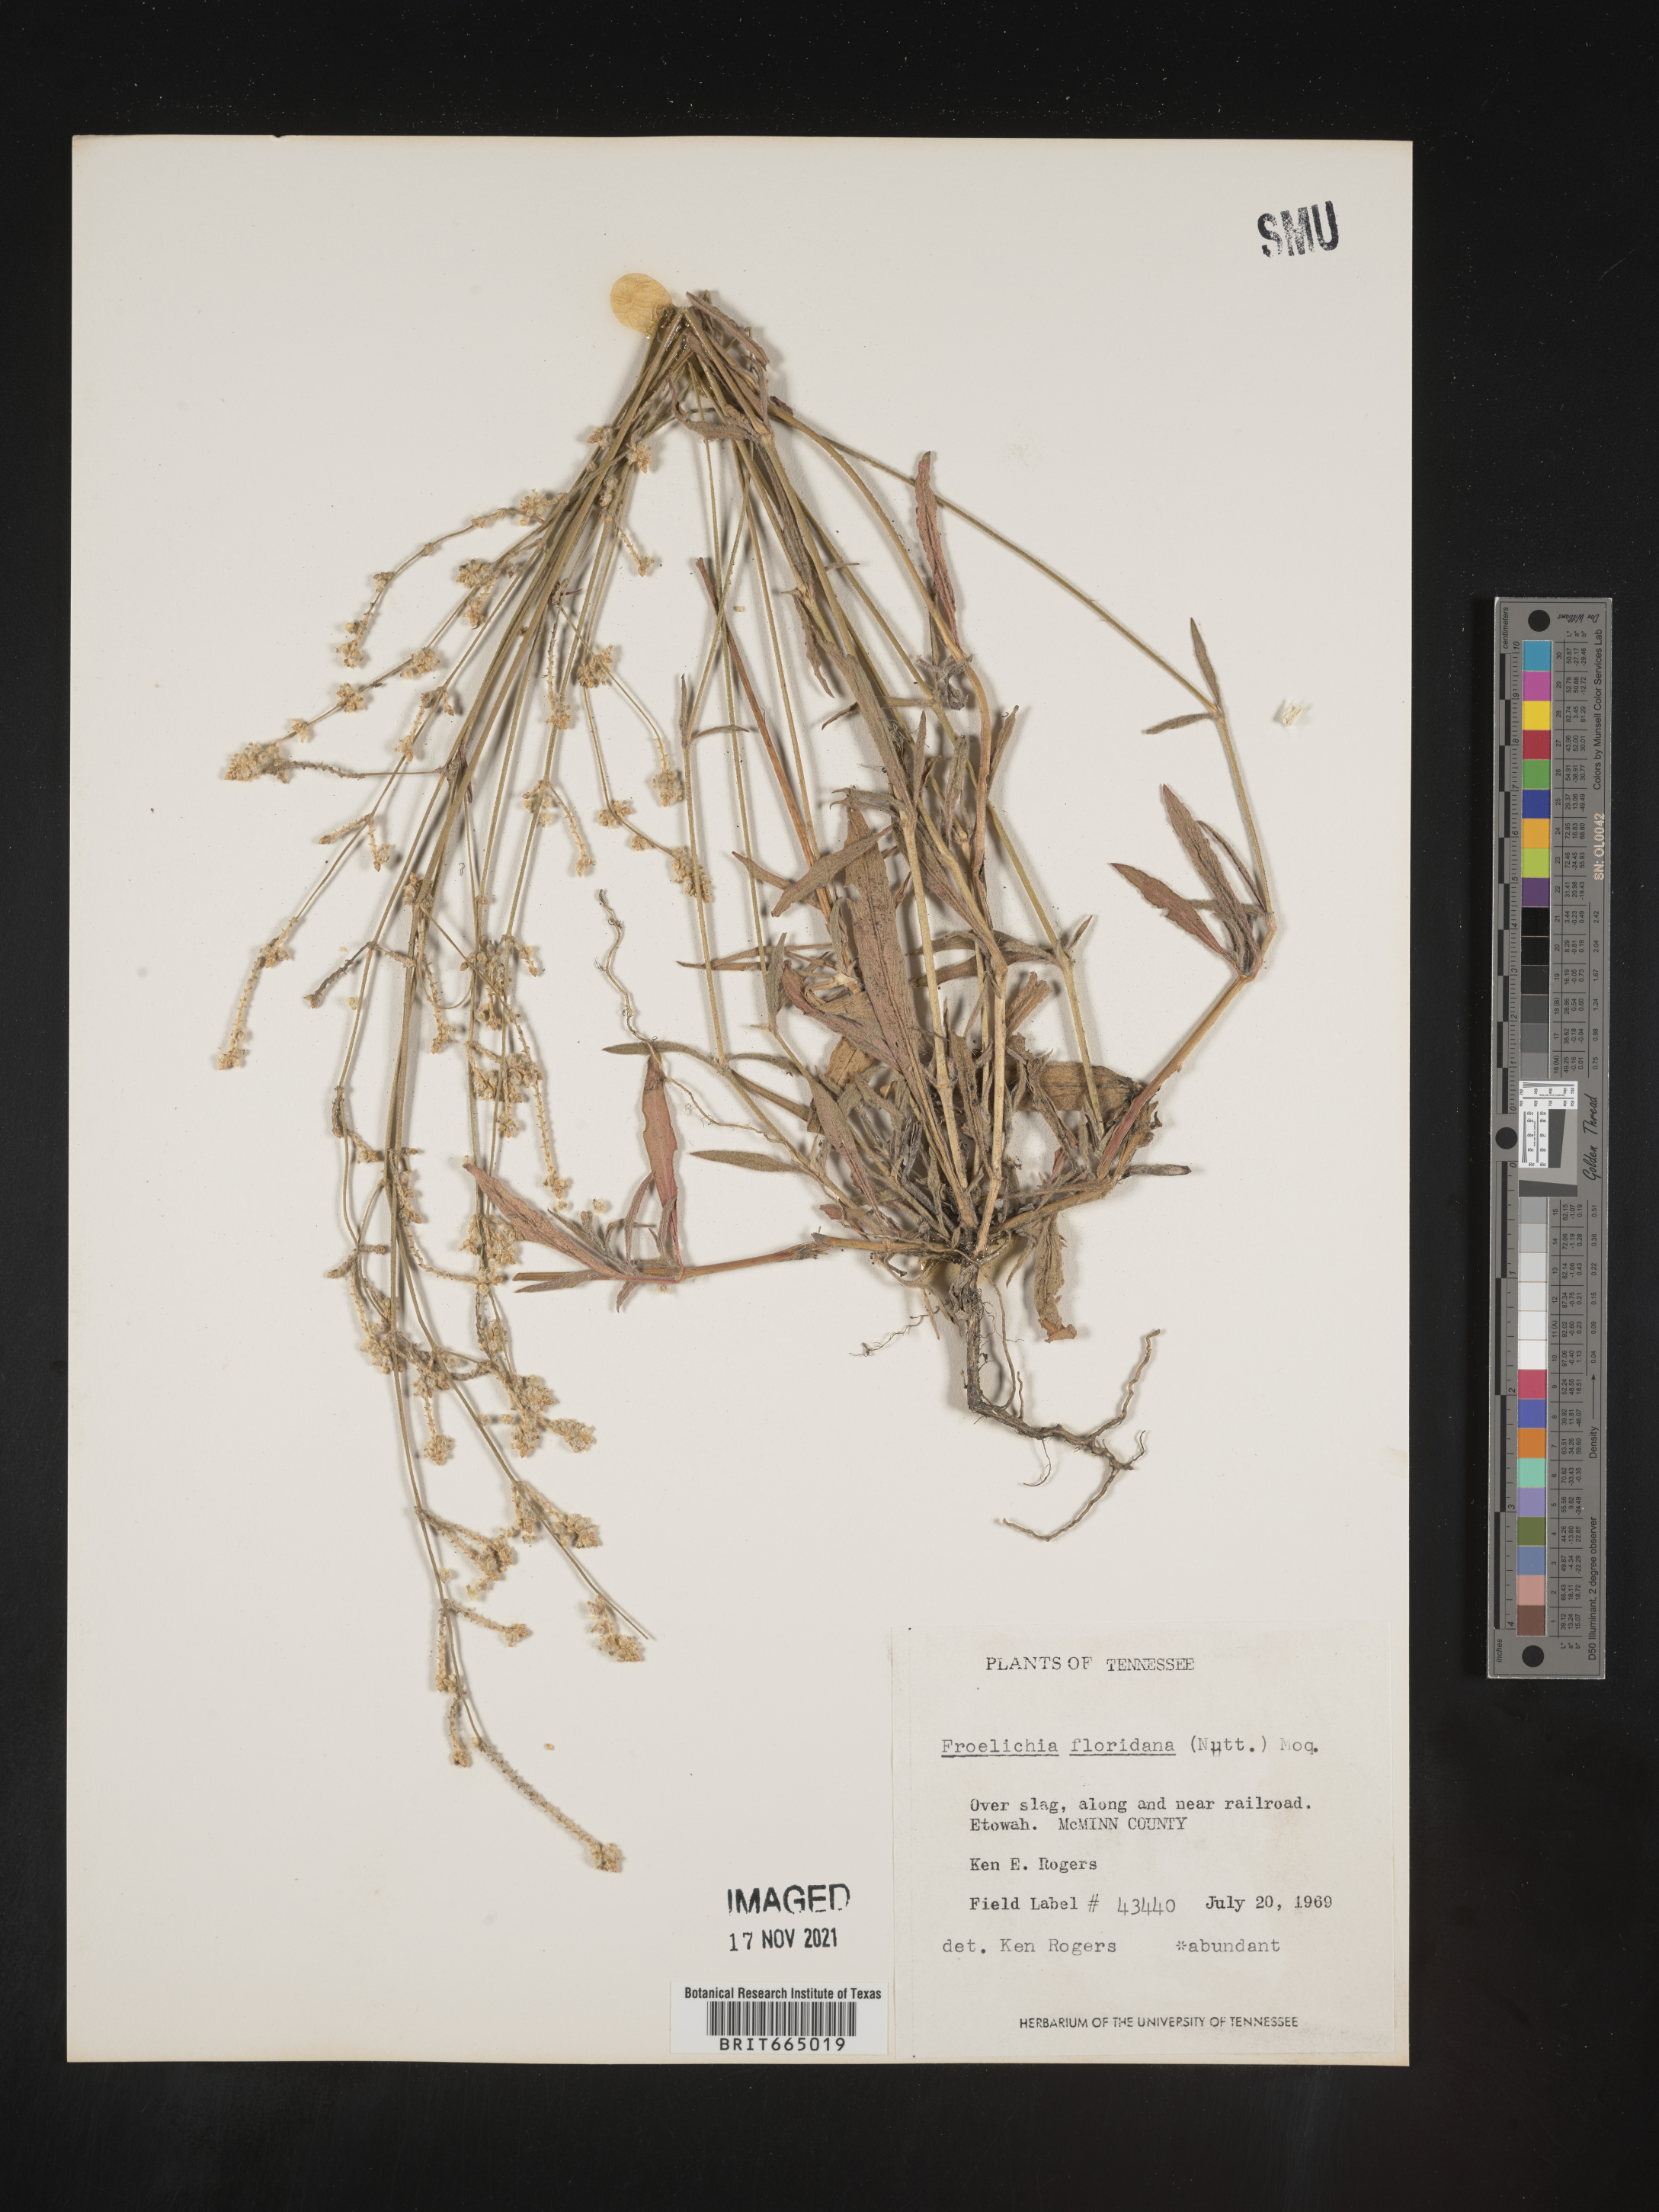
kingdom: Plantae
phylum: Tracheophyta
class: Magnoliopsida
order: Caryophyllales
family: Amaranthaceae
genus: Froelichia
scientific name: Froelichia gracilis
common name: Slender cottonweed
